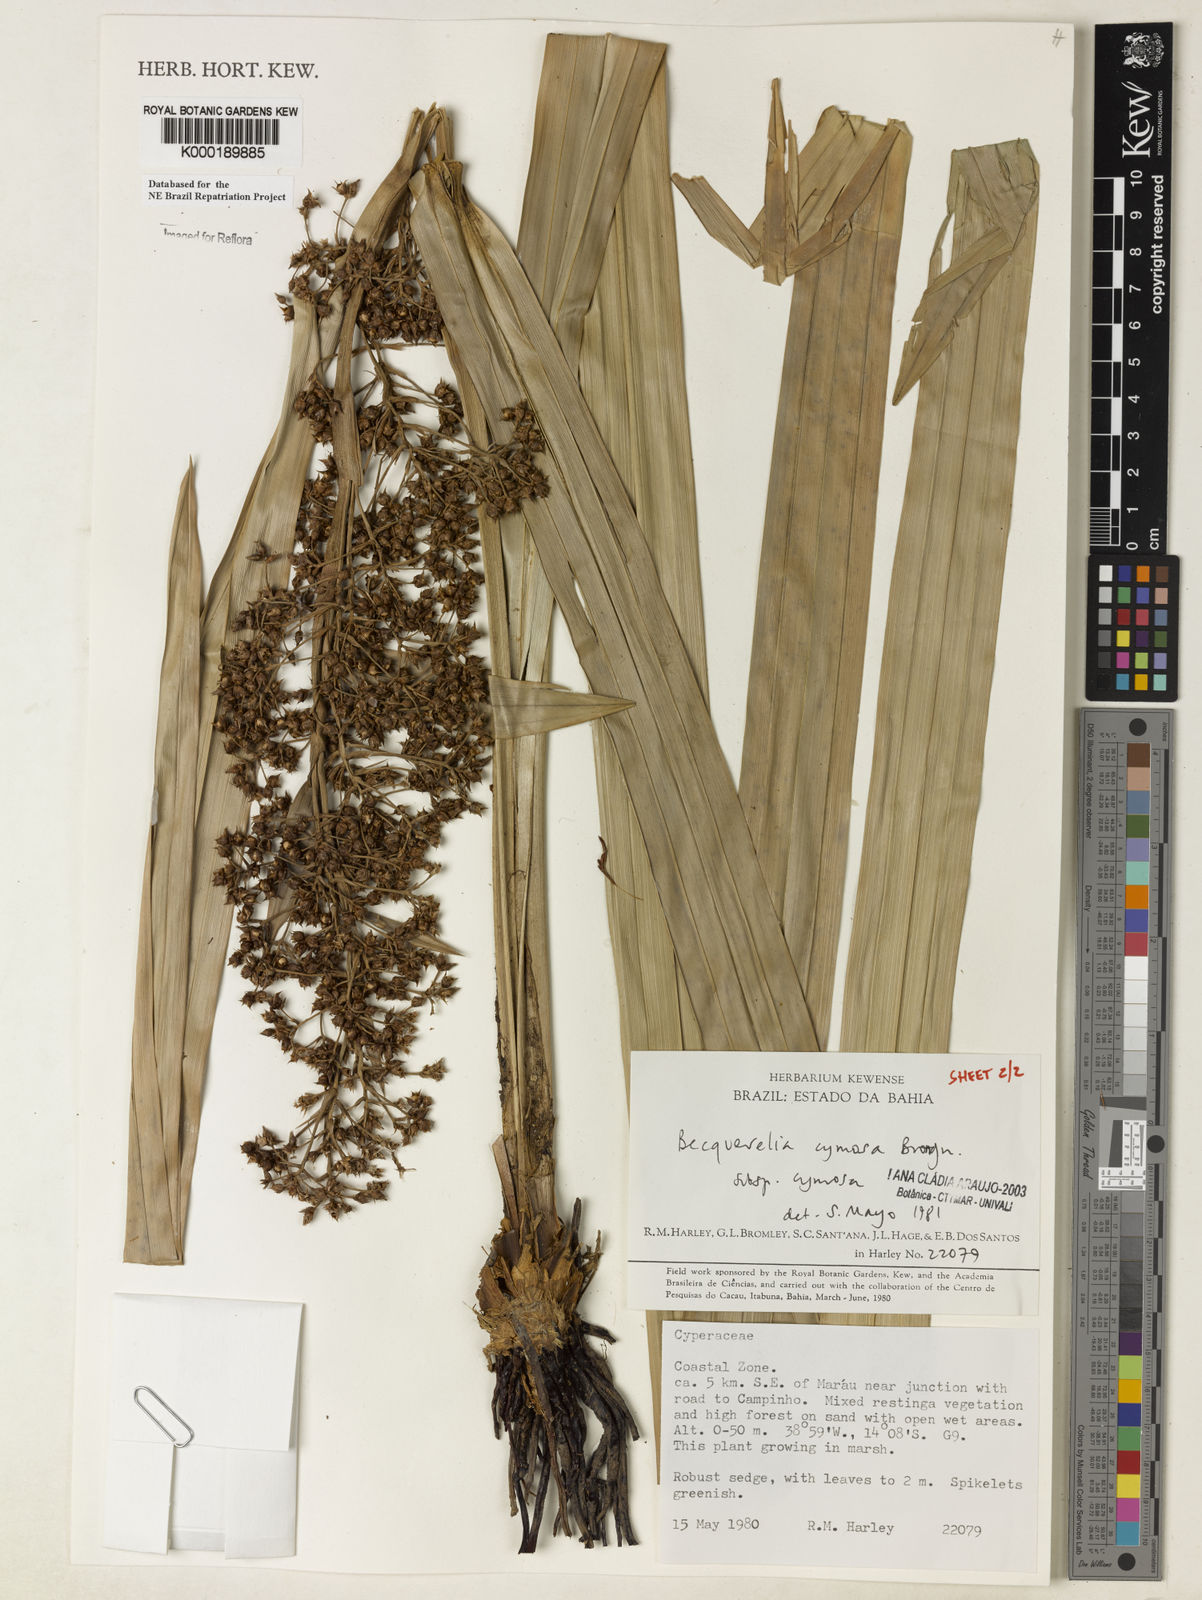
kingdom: Plantae
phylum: Tracheophyta
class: Liliopsida
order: Poales
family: Cyperaceae
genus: Becquerelia
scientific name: Becquerelia cymosa
